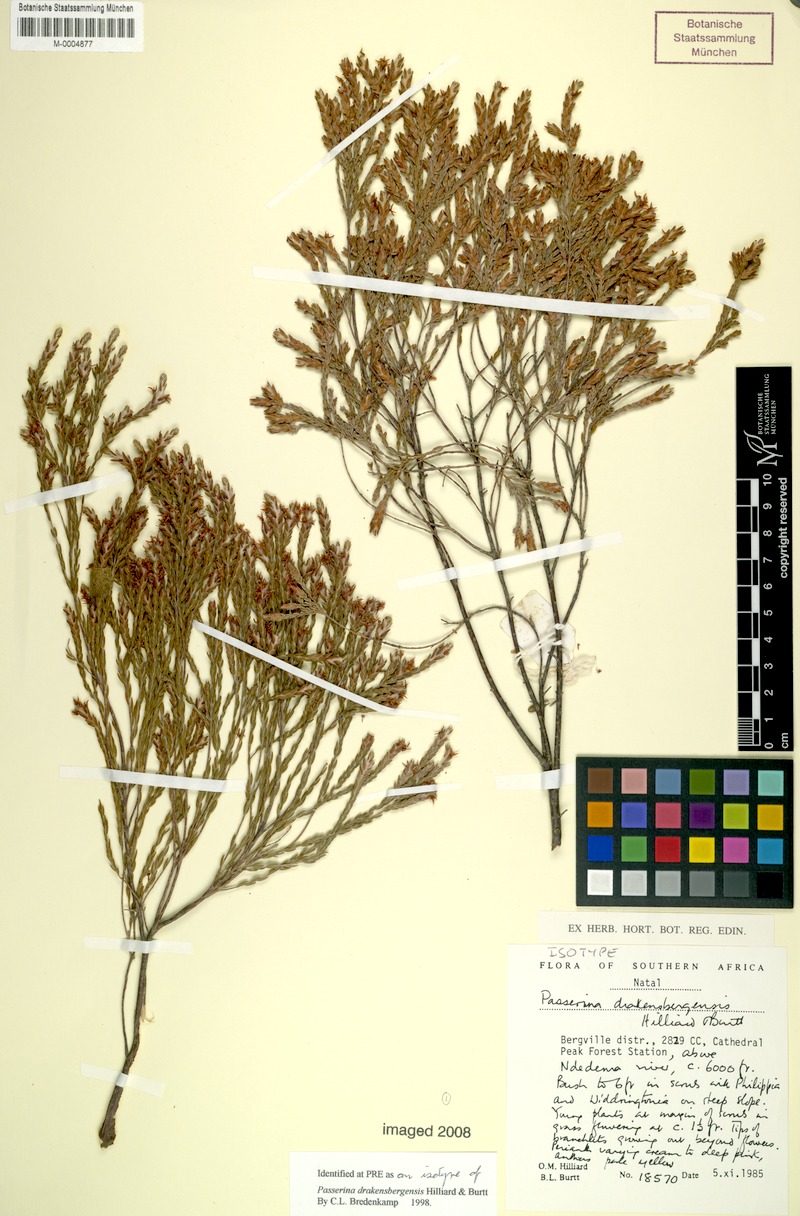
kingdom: Plantae
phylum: Tracheophyta
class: Magnoliopsida
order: Malvales
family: Thymelaeaceae
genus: Passerina
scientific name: Passerina drakensbergensis
